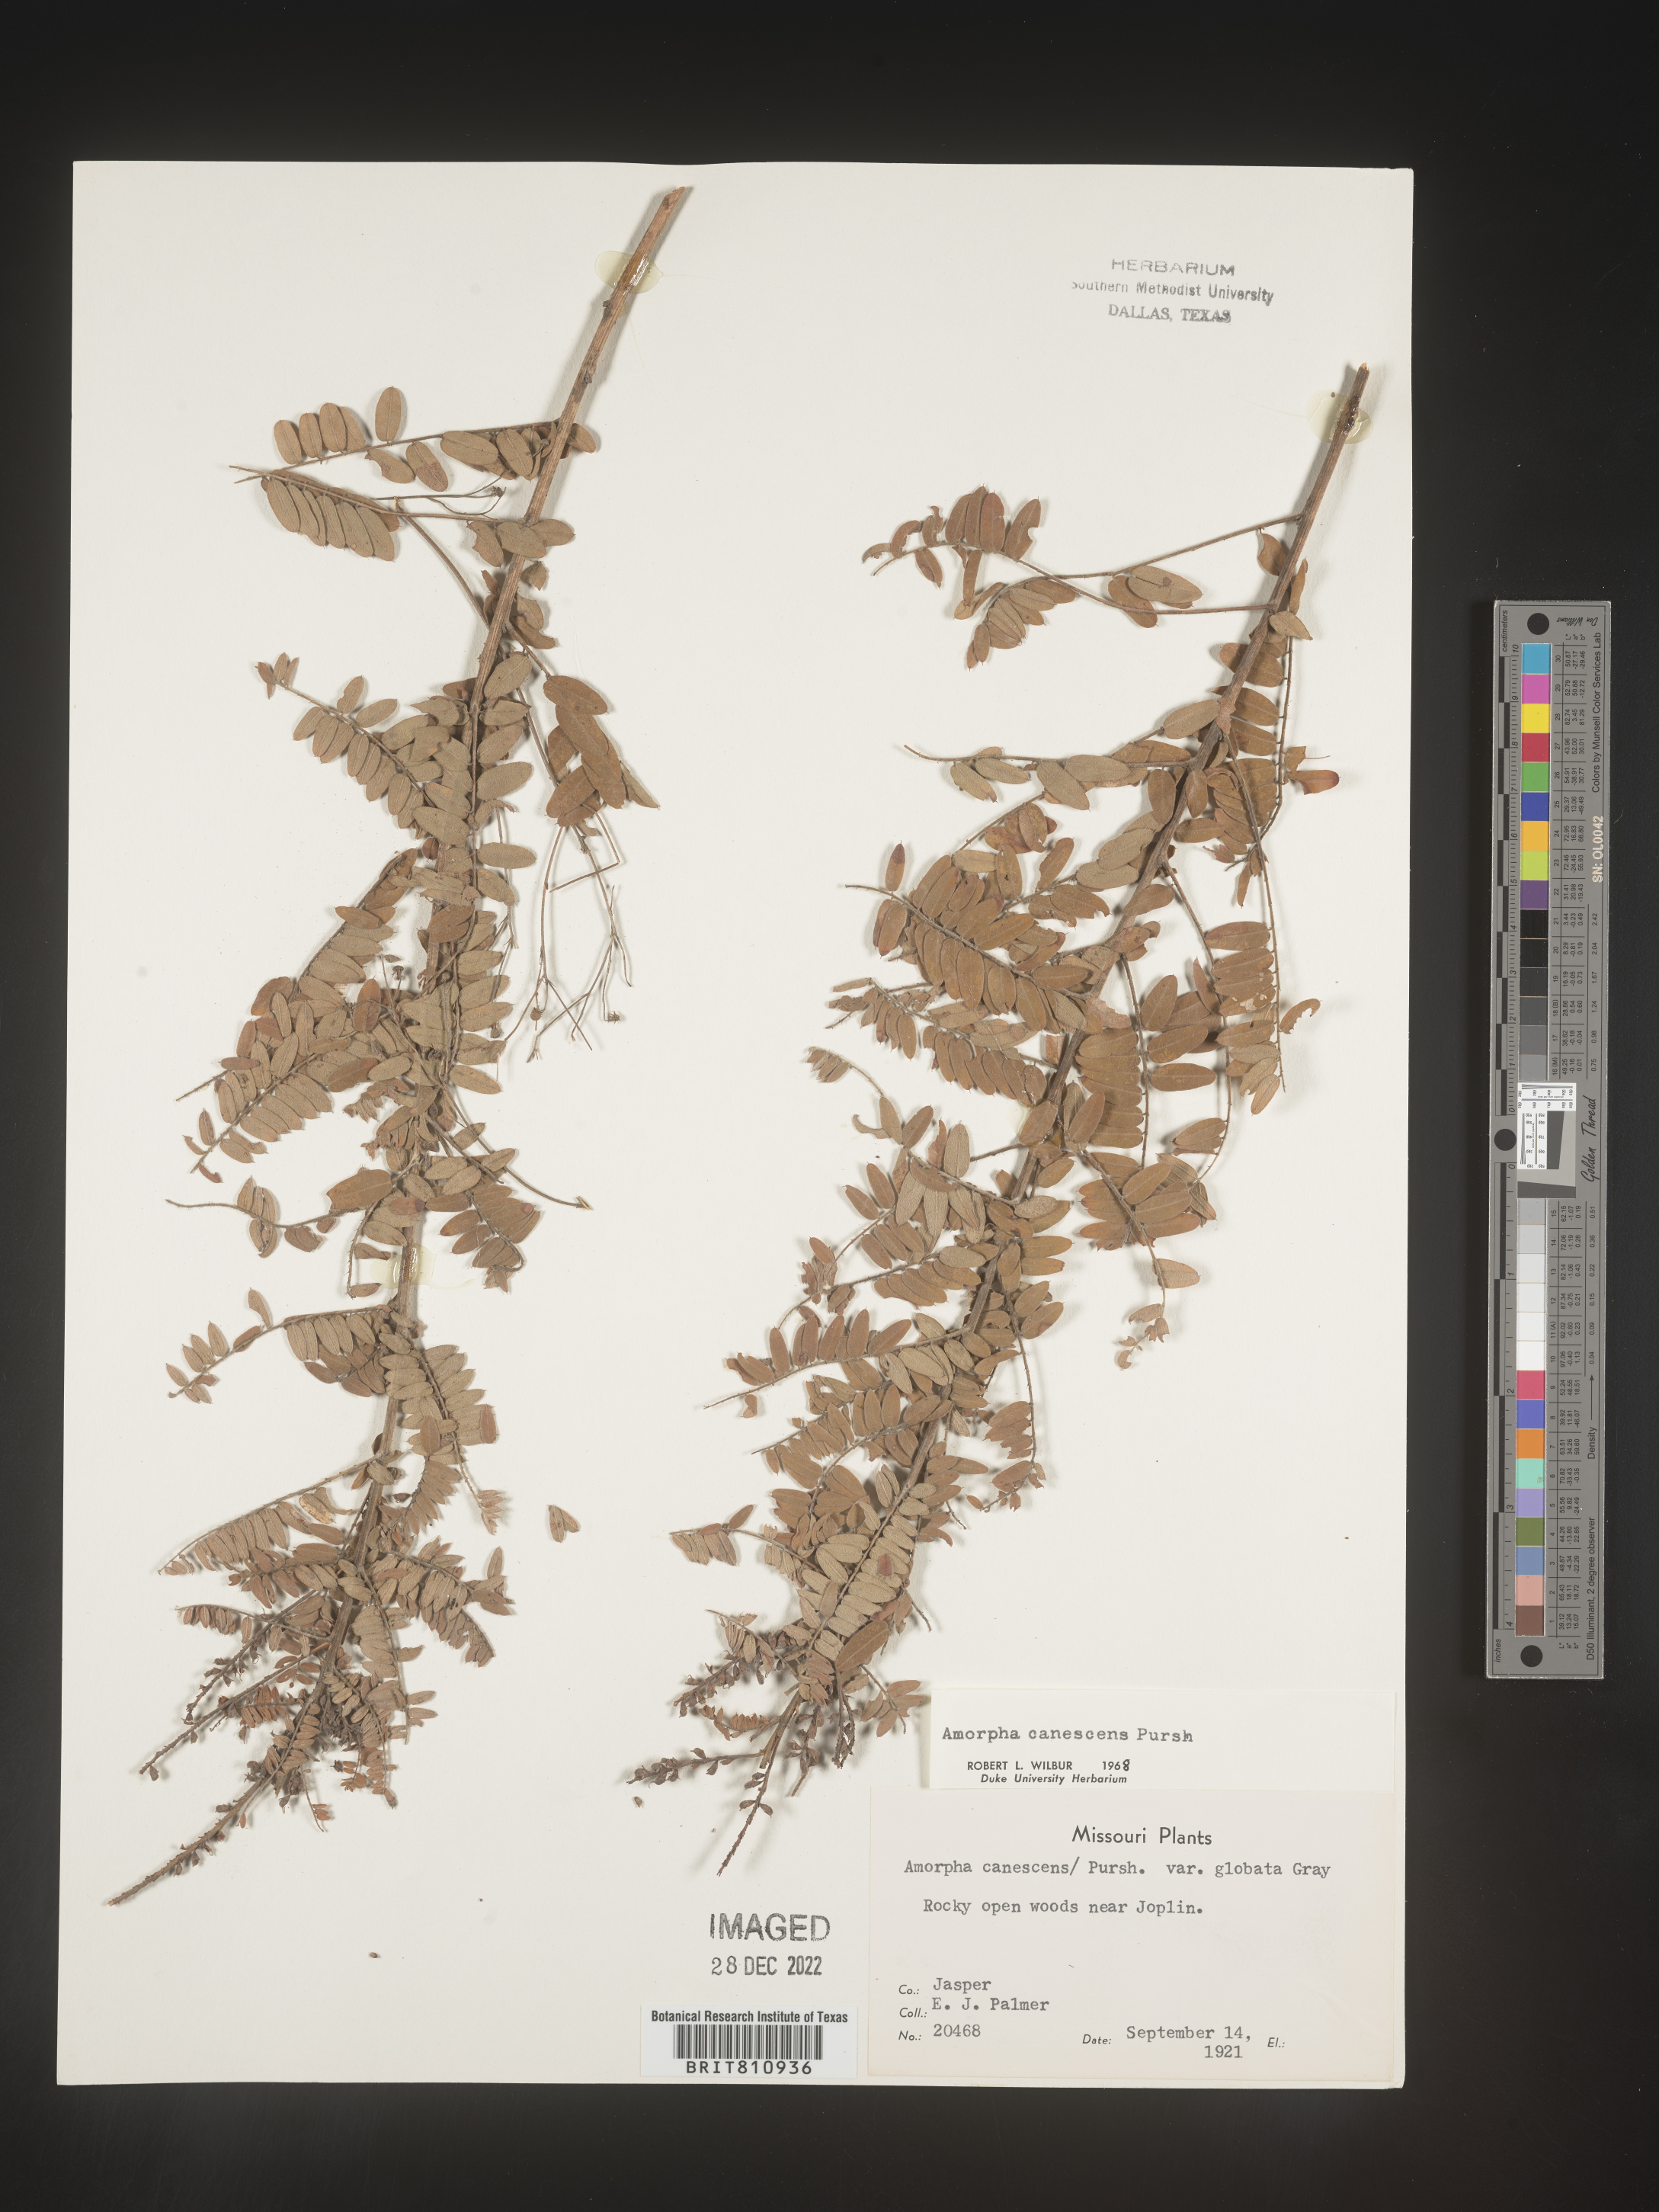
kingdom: Plantae
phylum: Tracheophyta
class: Magnoliopsida
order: Fabales
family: Fabaceae
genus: Amorpha
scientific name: Amorpha canescens
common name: Leadplant
